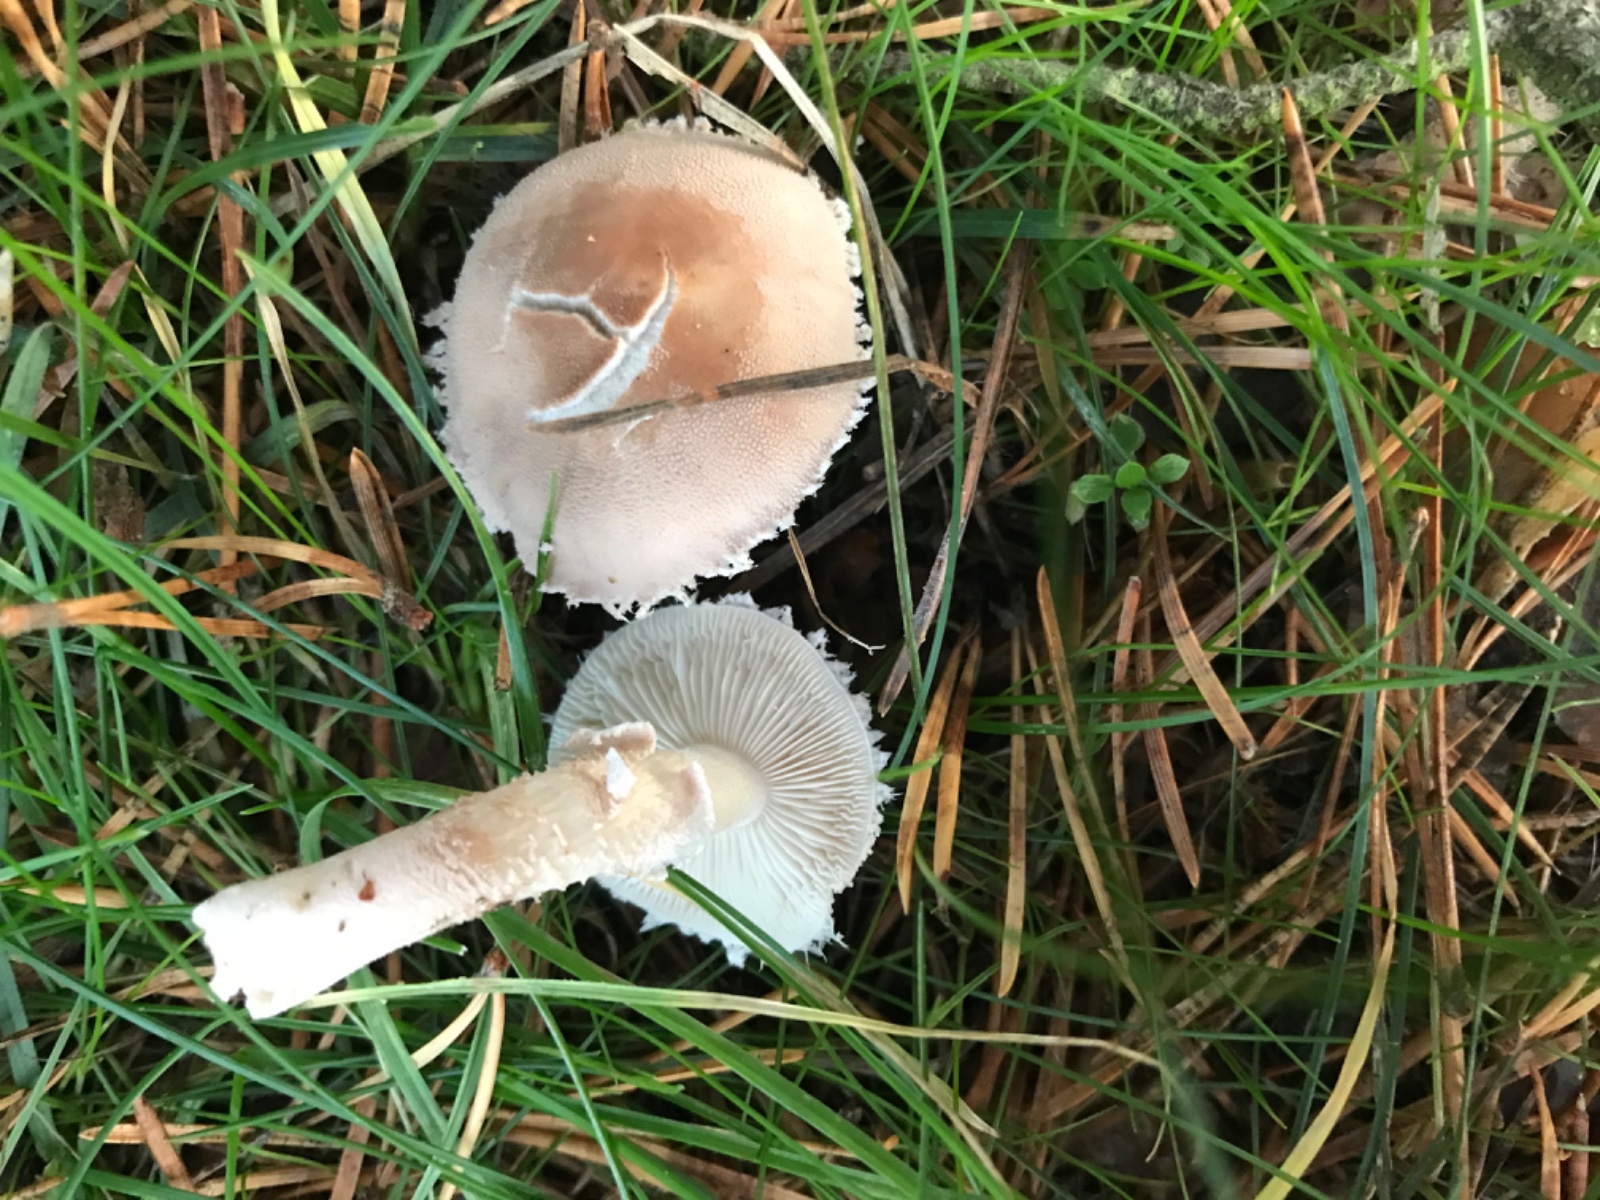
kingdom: Fungi
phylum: Basidiomycota
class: Agaricomycetes
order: Agaricales
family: Tricholomataceae
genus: Cystoderma
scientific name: Cystoderma carcharias
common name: rødgrå grynhat
